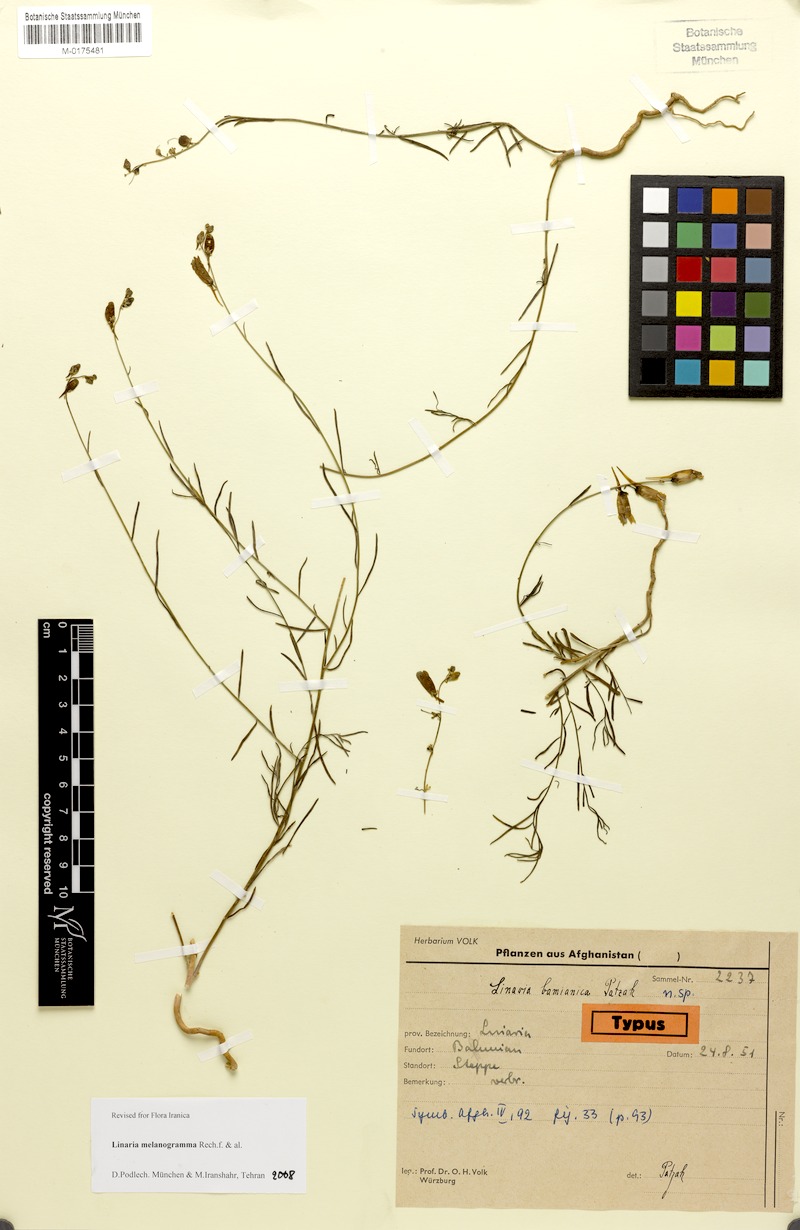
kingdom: Plantae
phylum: Tracheophyta
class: Magnoliopsida
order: Lamiales
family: Plantaginaceae
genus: Linaria
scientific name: Linaria melanogramma
